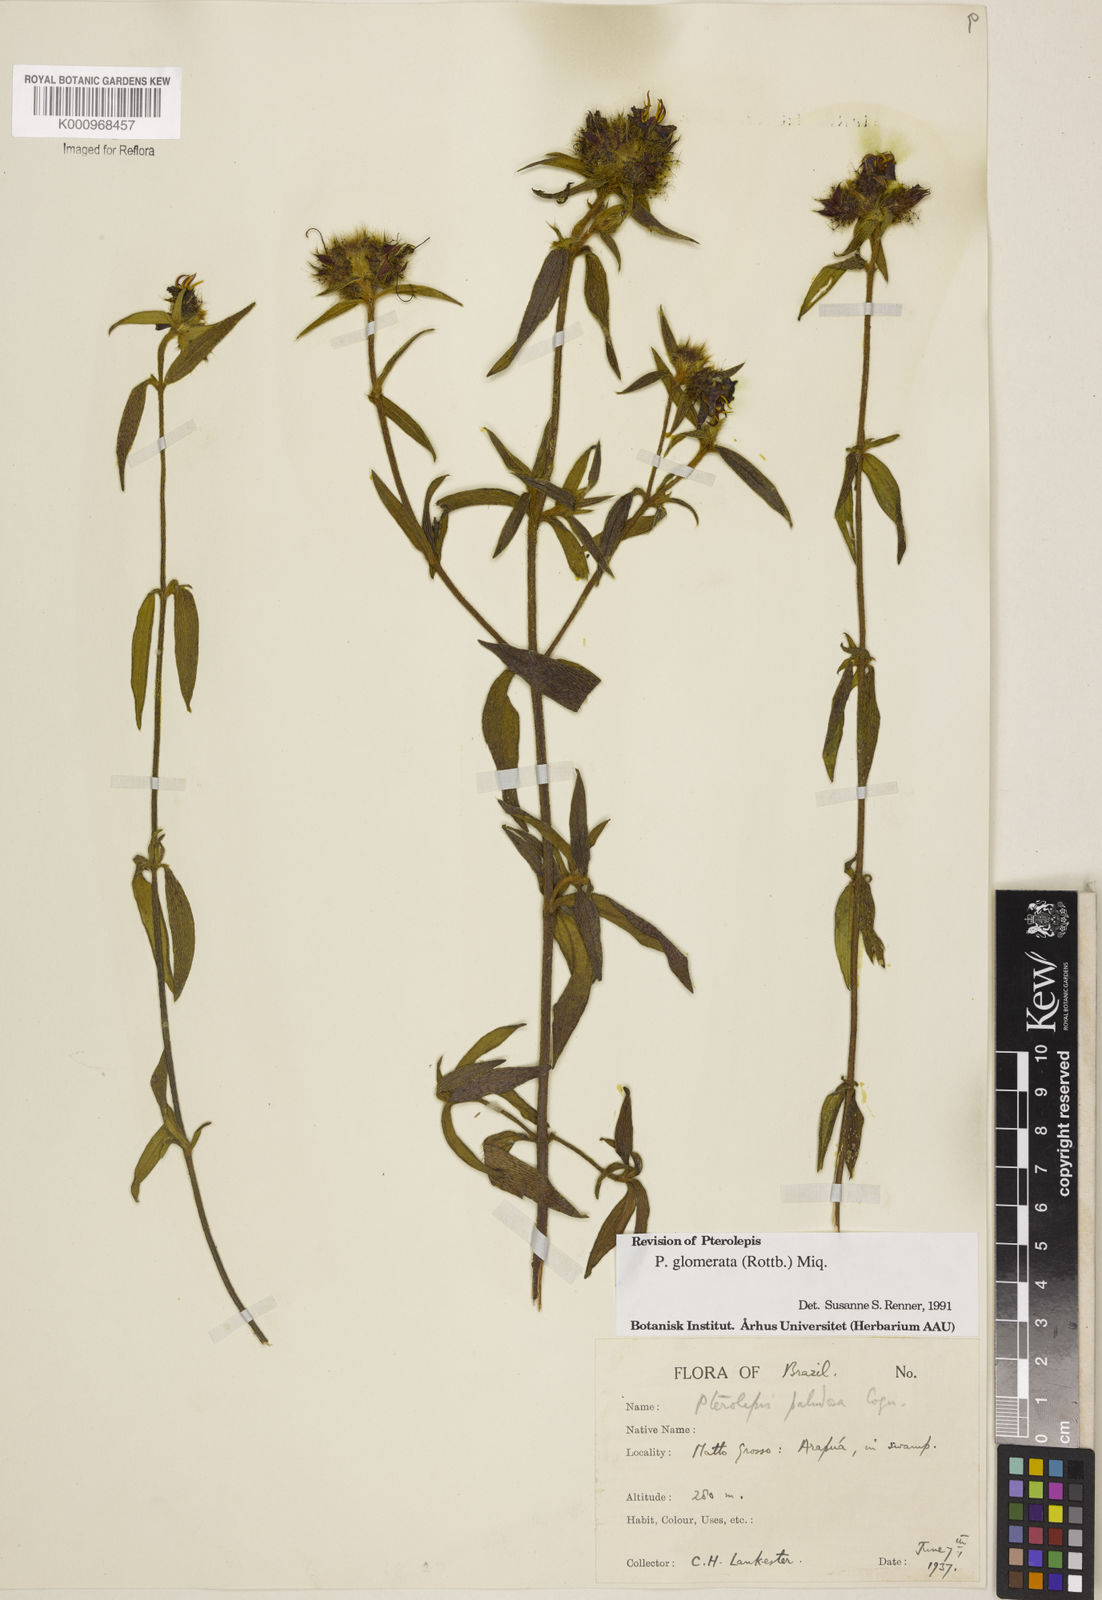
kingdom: Plantae
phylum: Tracheophyta
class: Magnoliopsida
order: Myrtales
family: Melastomataceae
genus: Pterolepis
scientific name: Pterolepis glomerata
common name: False meadowbeauty
